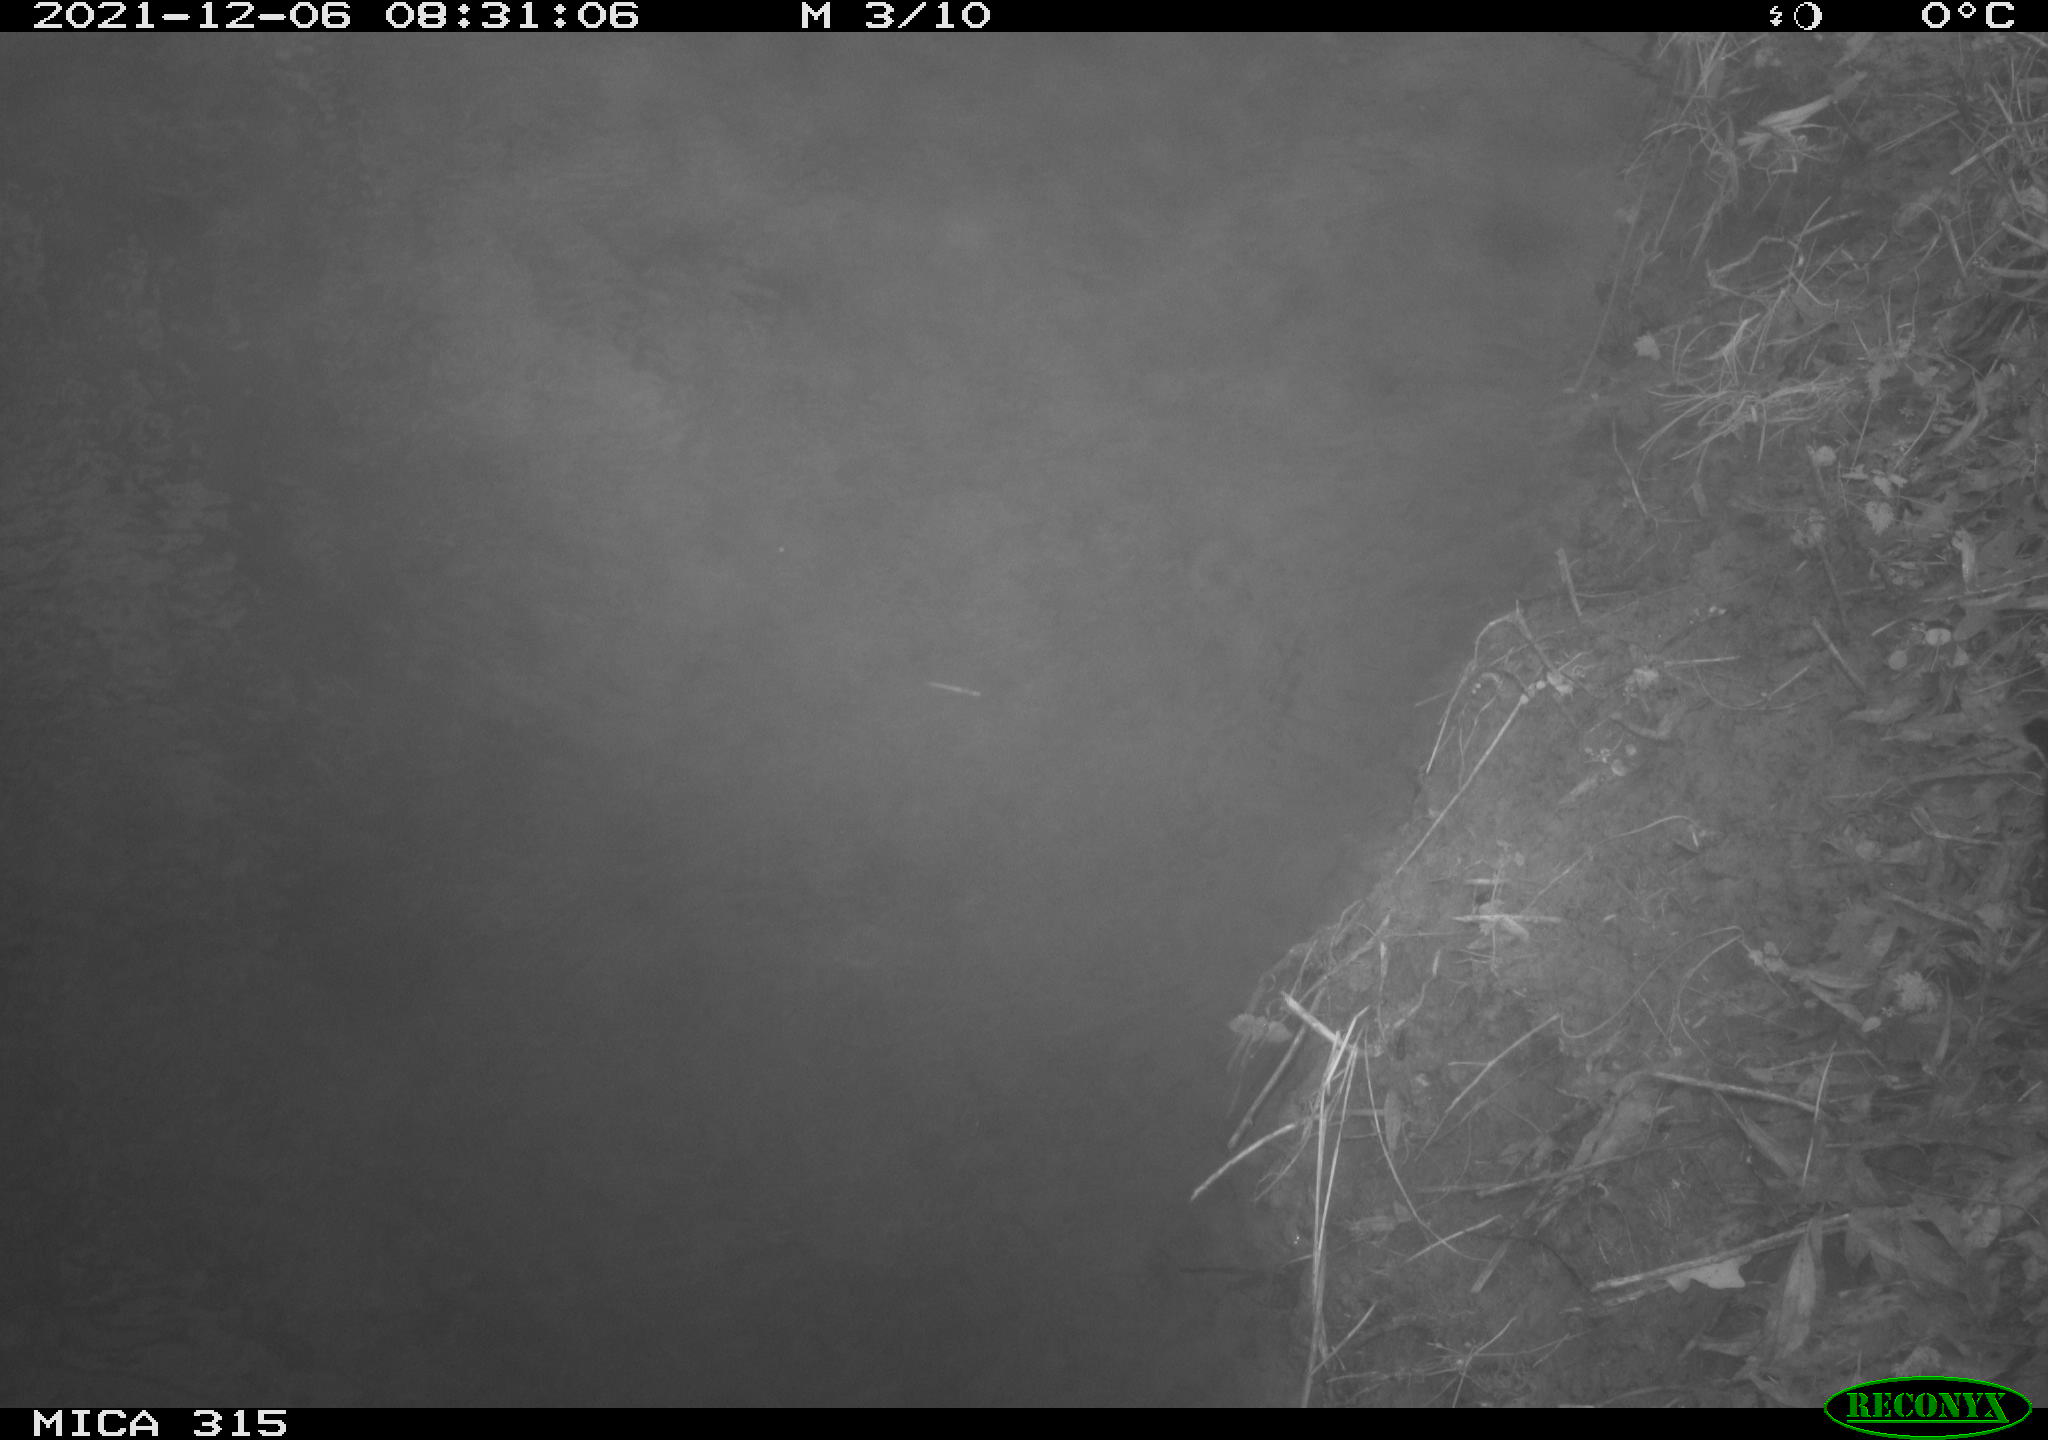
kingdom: Animalia
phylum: Chordata
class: Aves
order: Gruiformes
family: Rallidae
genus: Gallinula
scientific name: Gallinula chloropus
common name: Common moorhen
